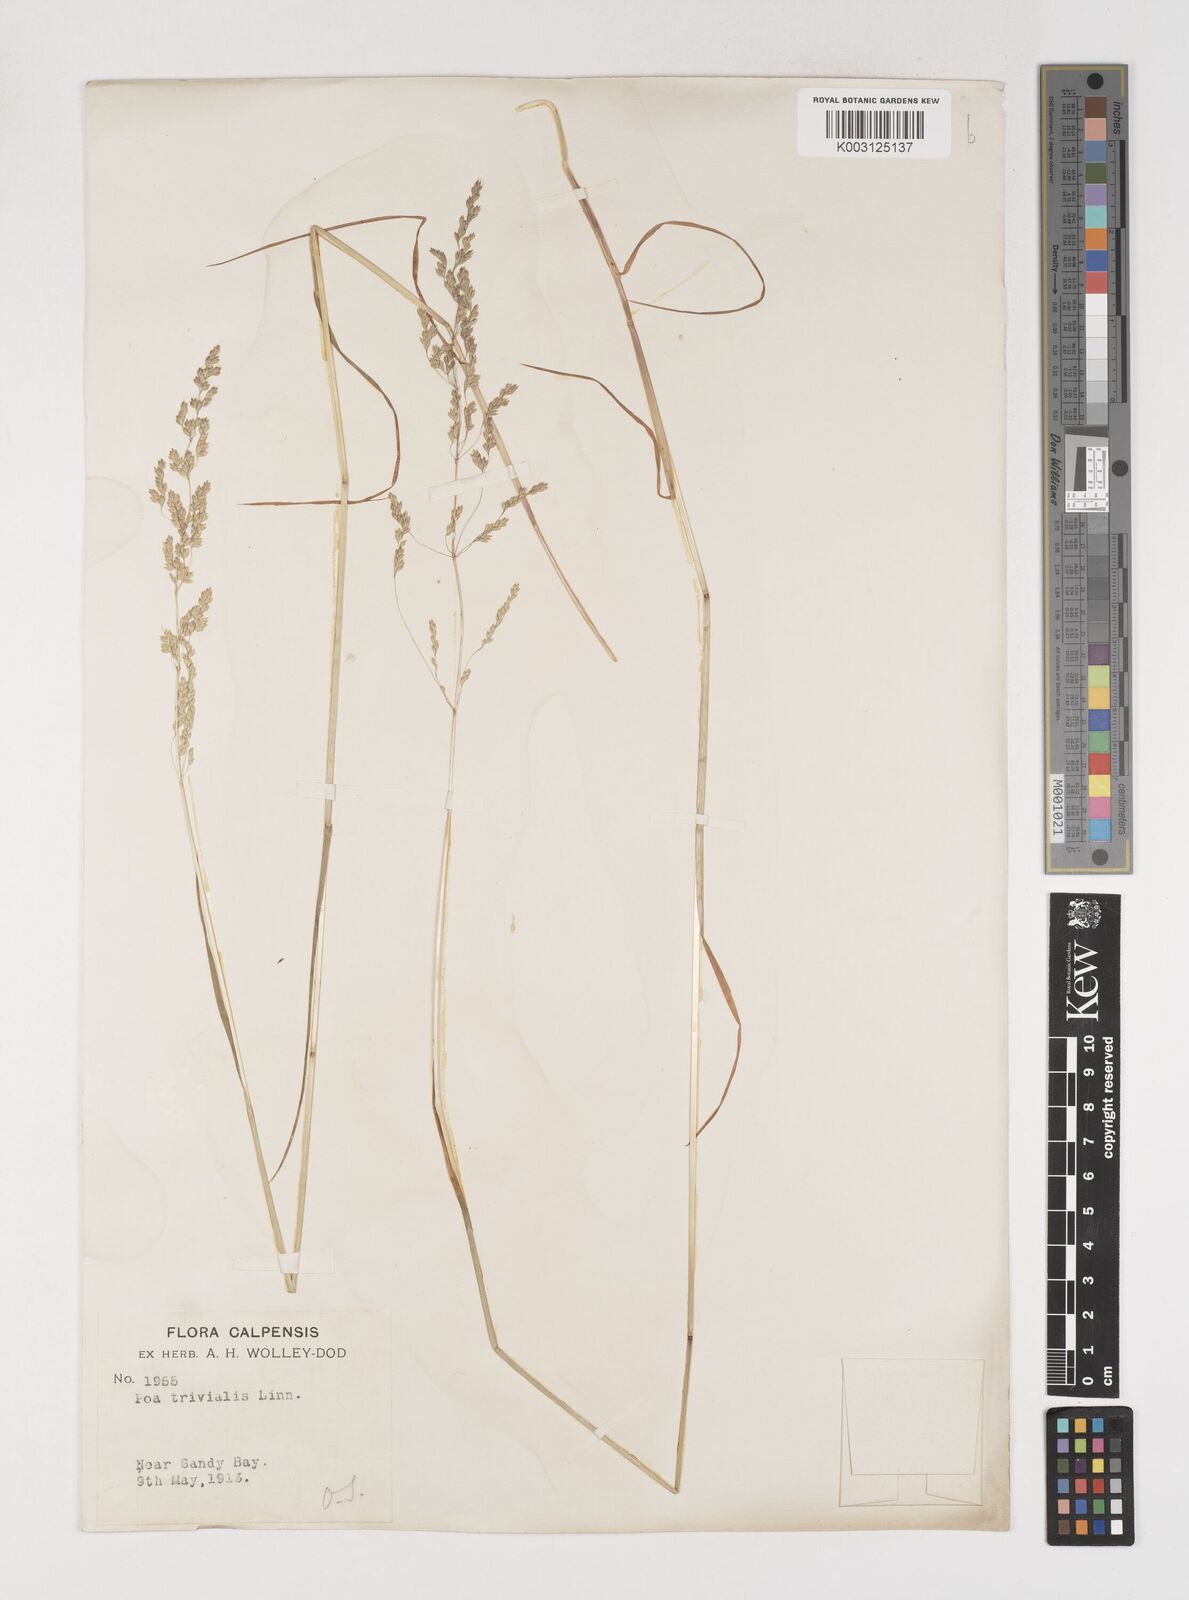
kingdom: Plantae
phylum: Tracheophyta
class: Liliopsida
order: Poales
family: Poaceae
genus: Poa
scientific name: Poa trivialis
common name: Rough bluegrass
